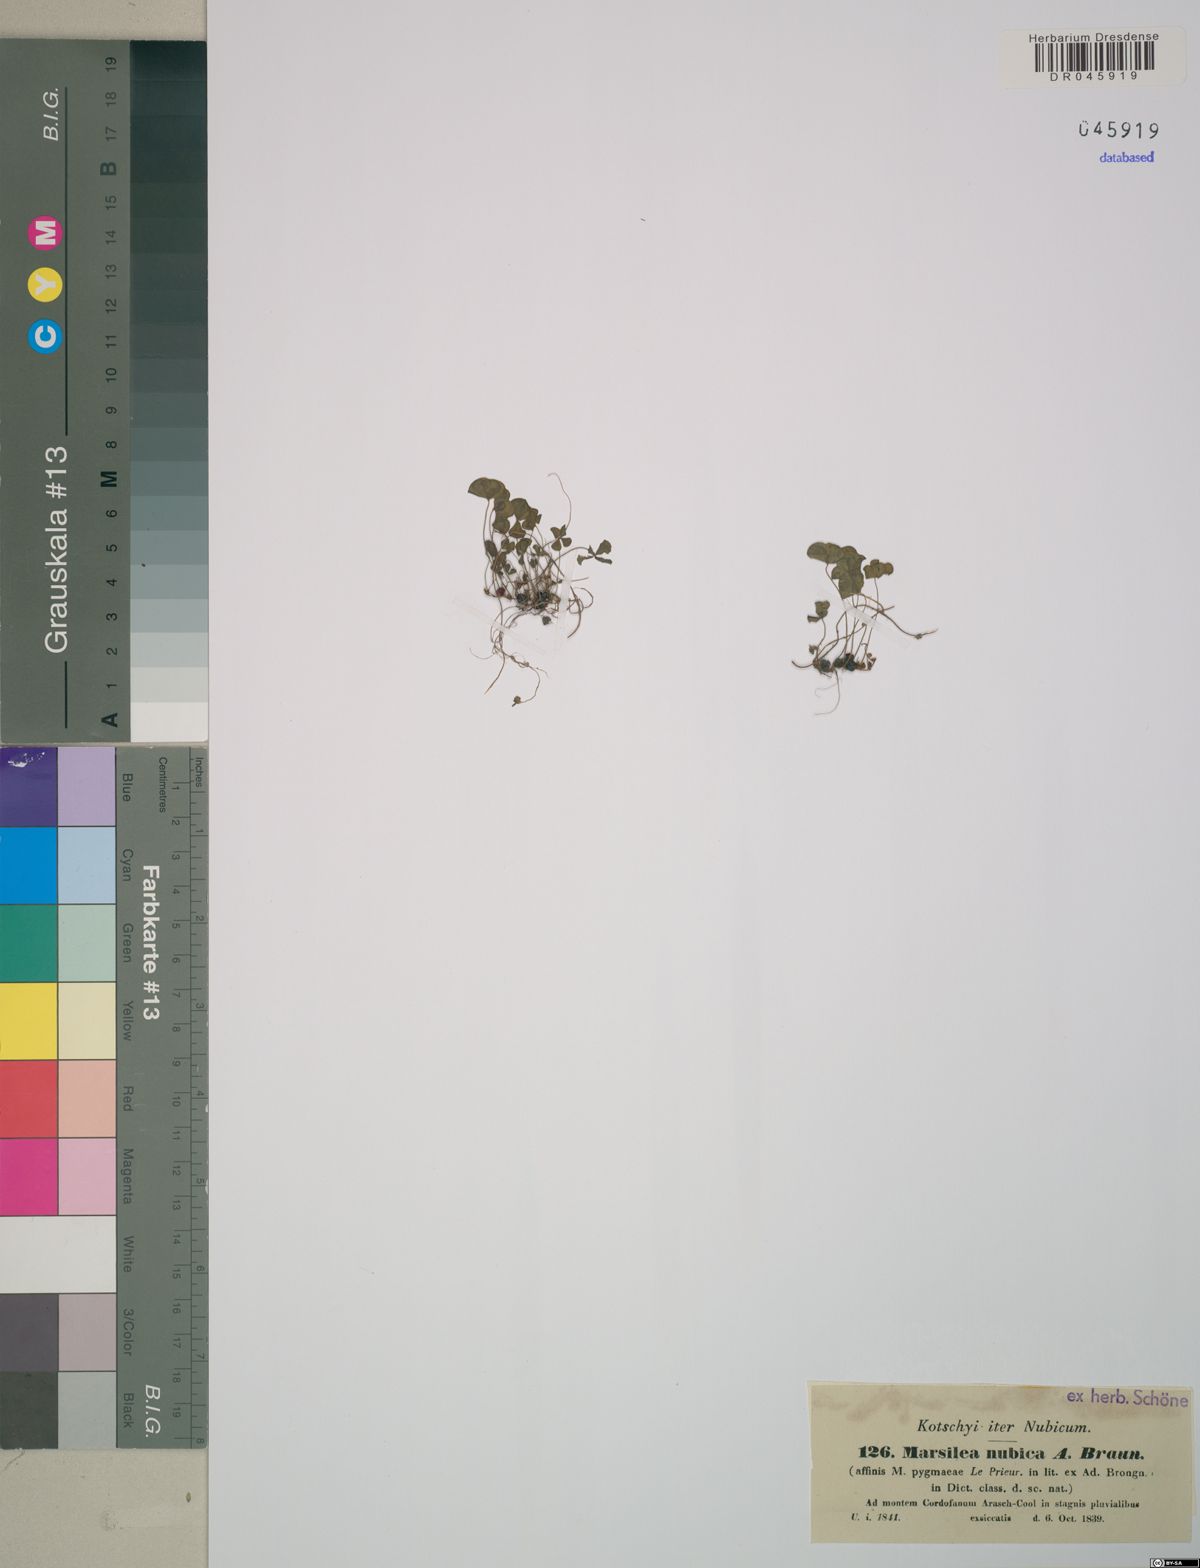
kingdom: Plantae
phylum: Tracheophyta
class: Polypodiopsida
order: Salviniales
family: Marsileaceae
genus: Marsilea
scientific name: Marsilea nubica
